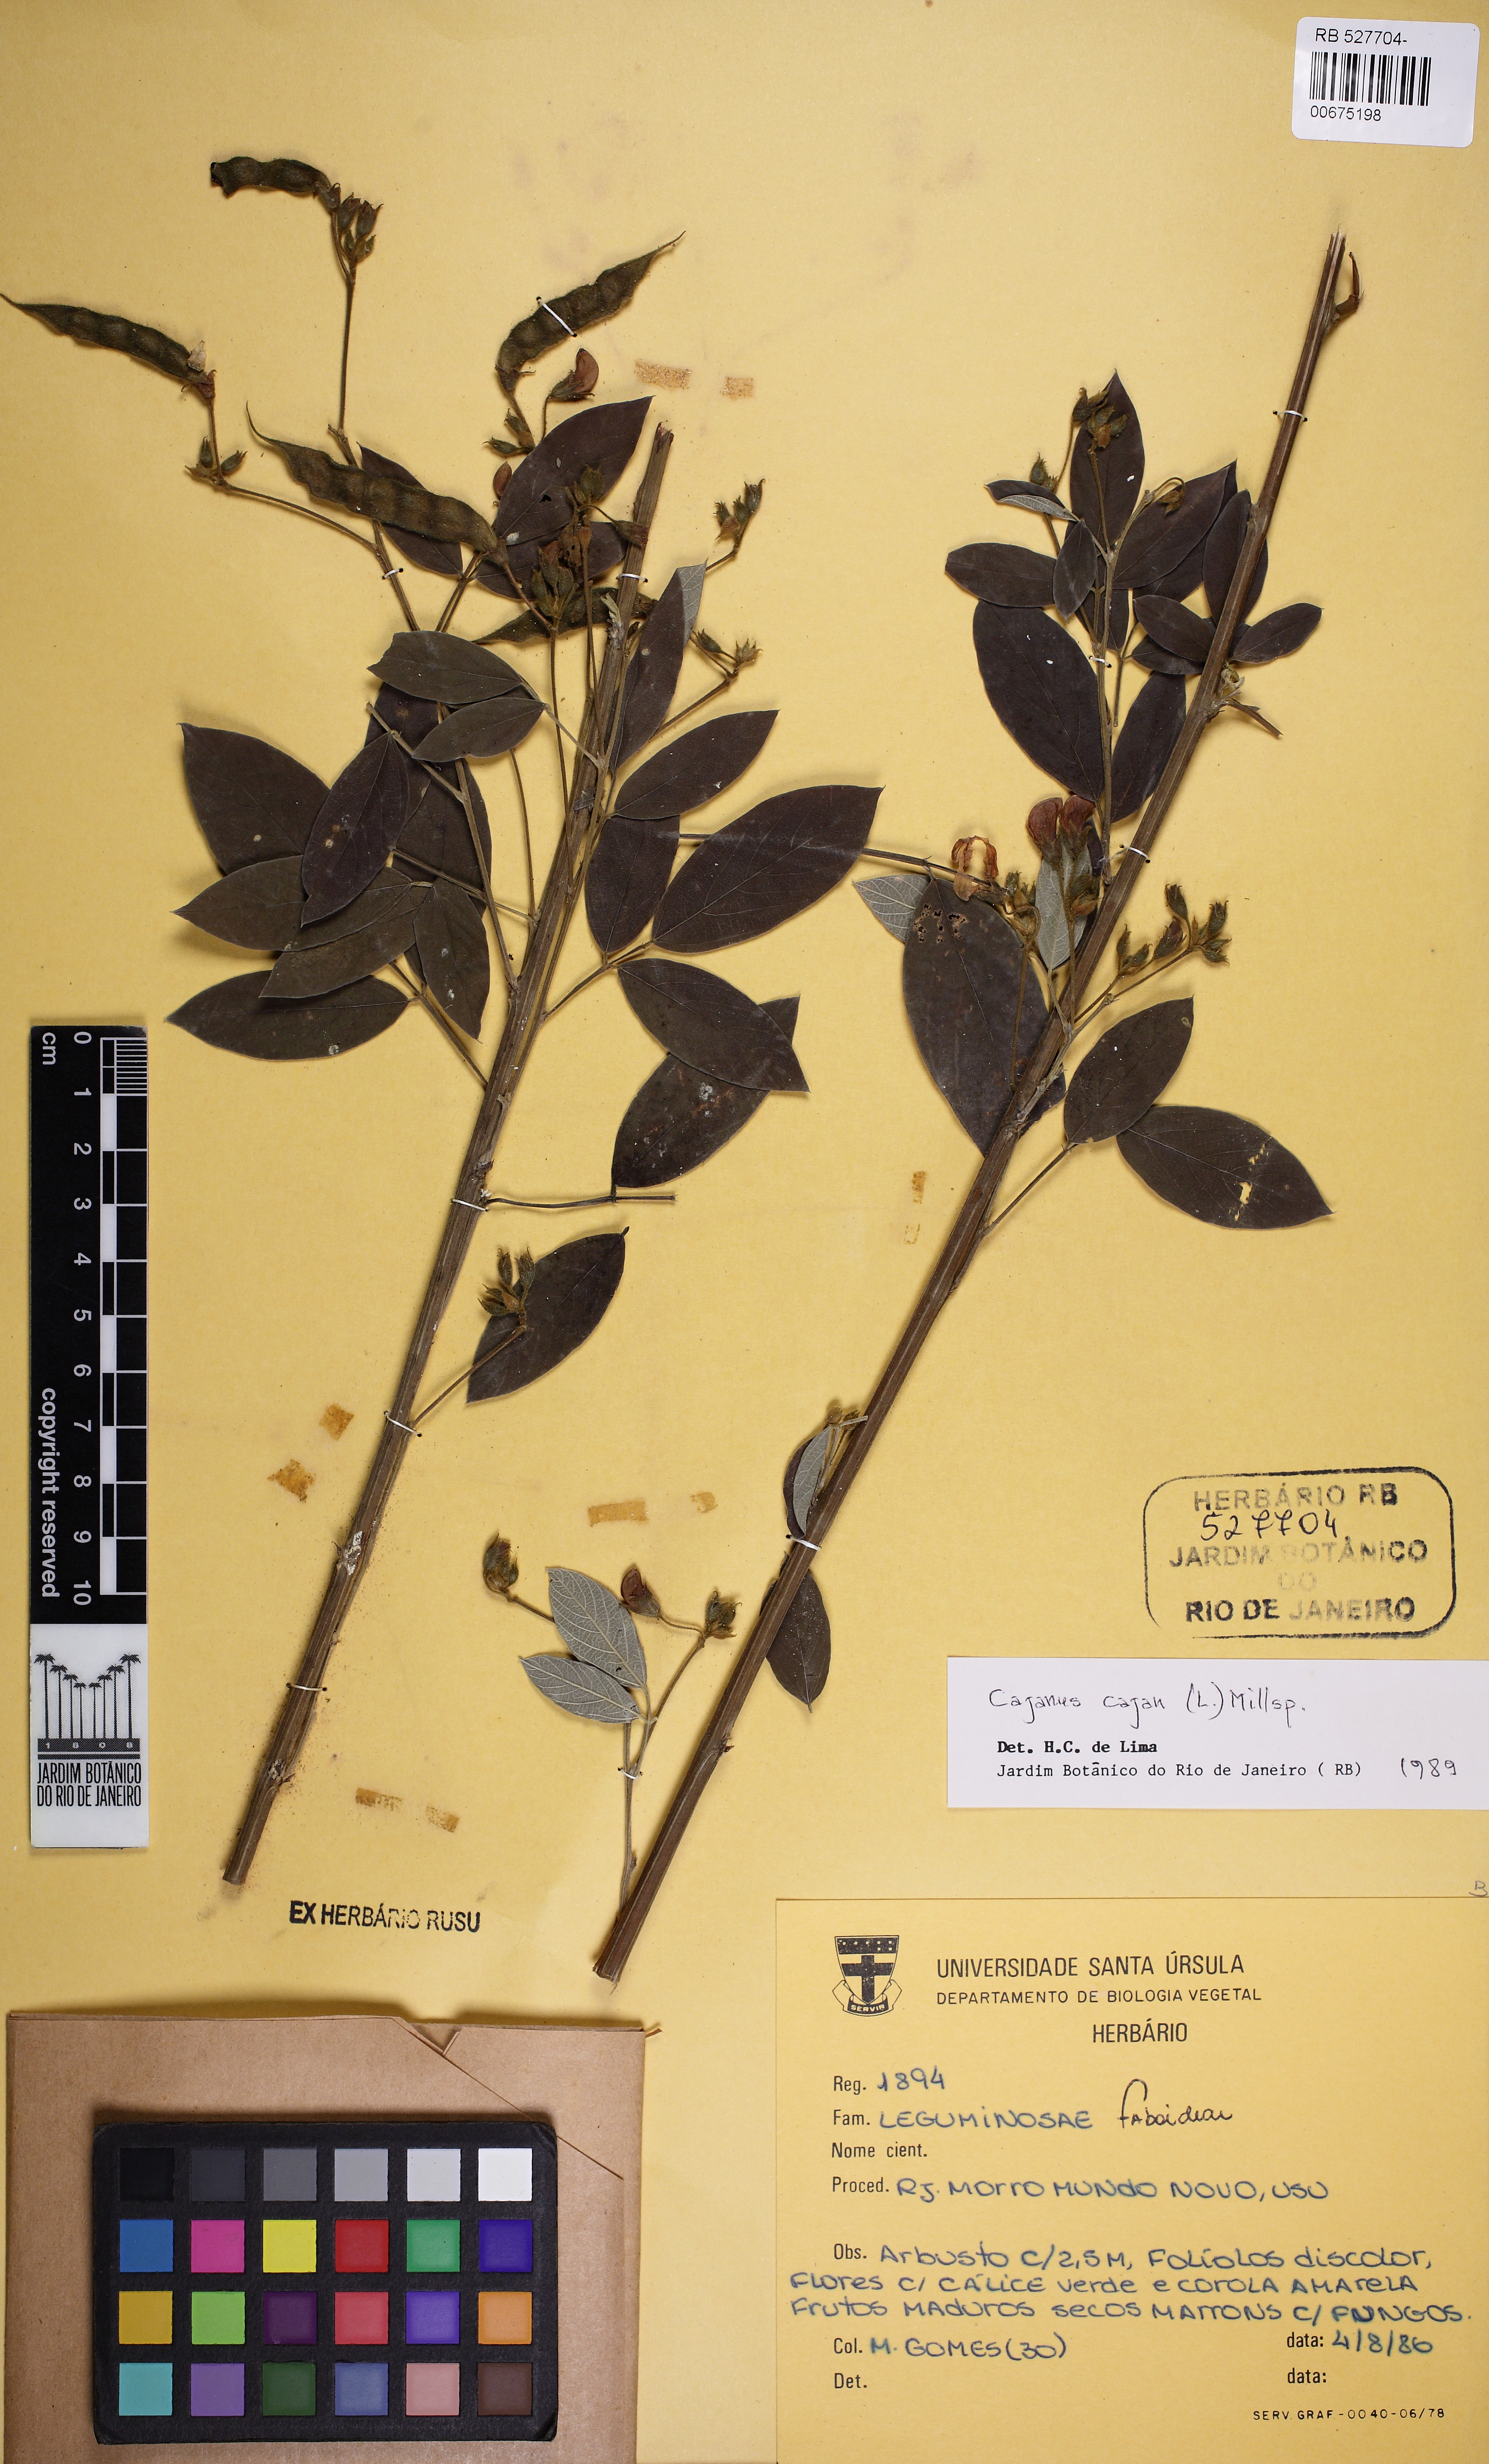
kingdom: Plantae
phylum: Tracheophyta
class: Magnoliopsida
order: Fabales
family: Fabaceae
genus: Cajanus
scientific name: Cajanus cajan
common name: Pigeonpea
